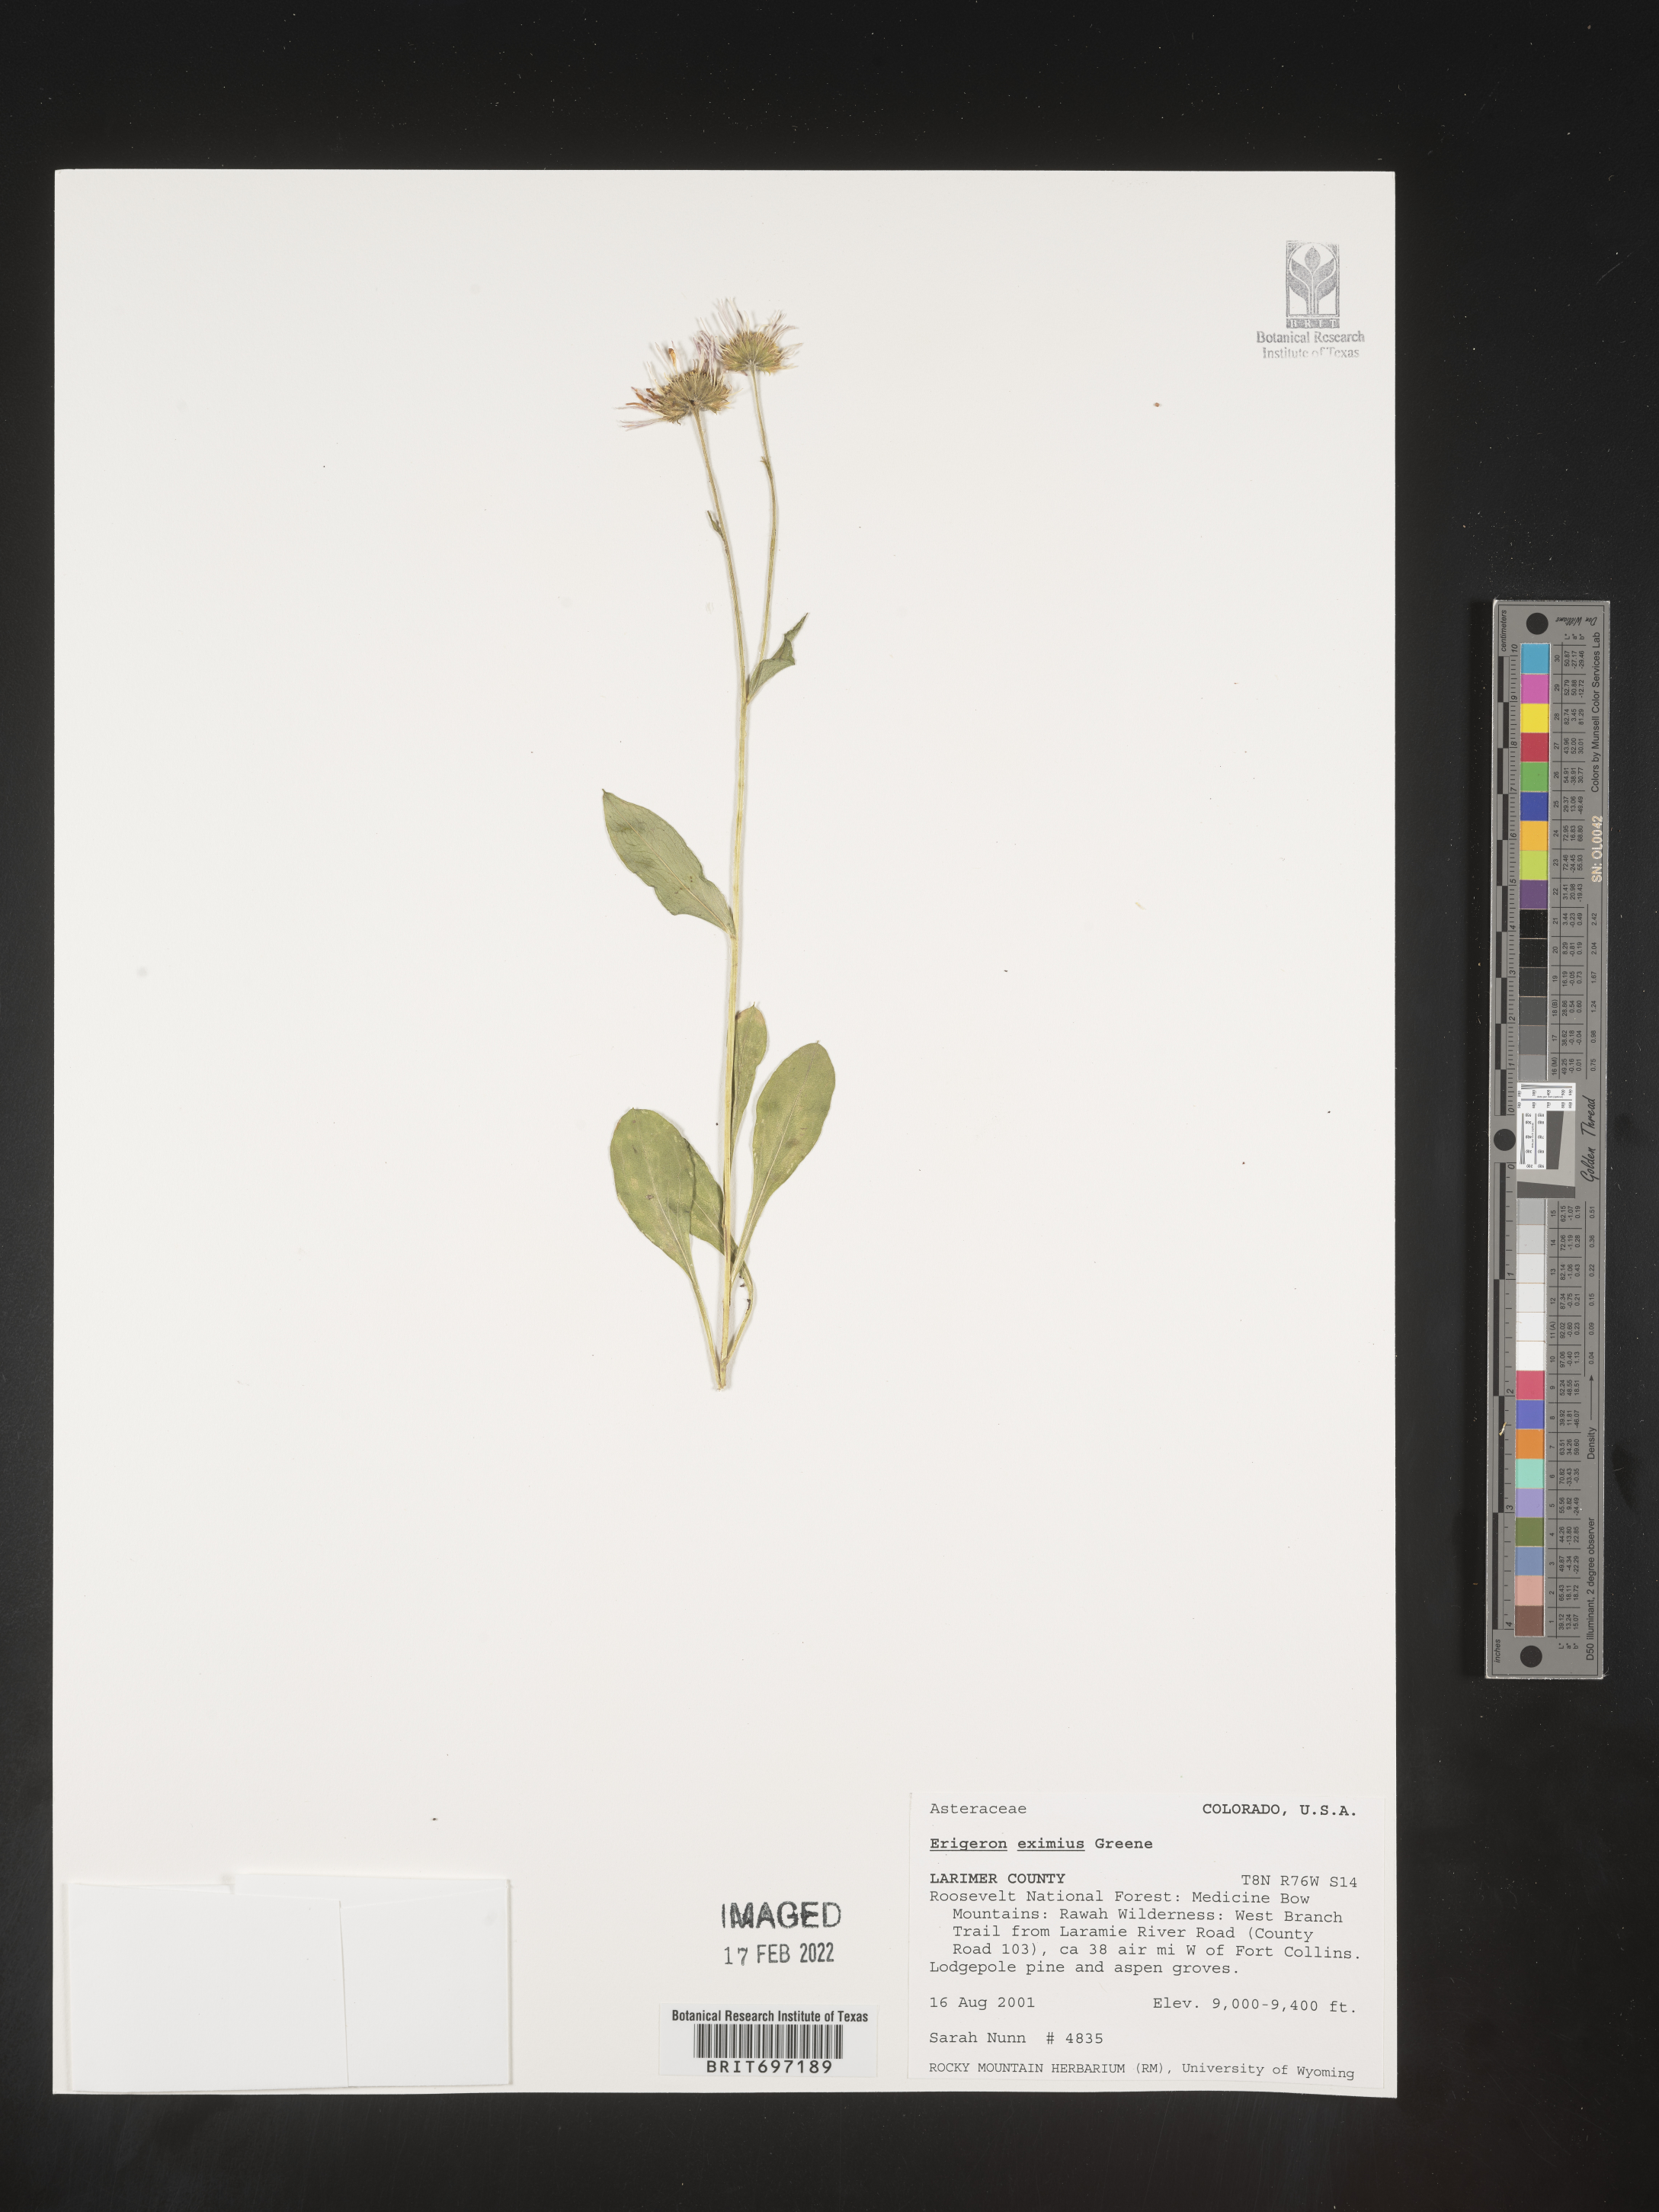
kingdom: Plantae
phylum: Tracheophyta
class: Magnoliopsida
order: Asterales
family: Asteraceae
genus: Erigeron
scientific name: Erigeron eximius
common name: Spruce-fir fleabane
